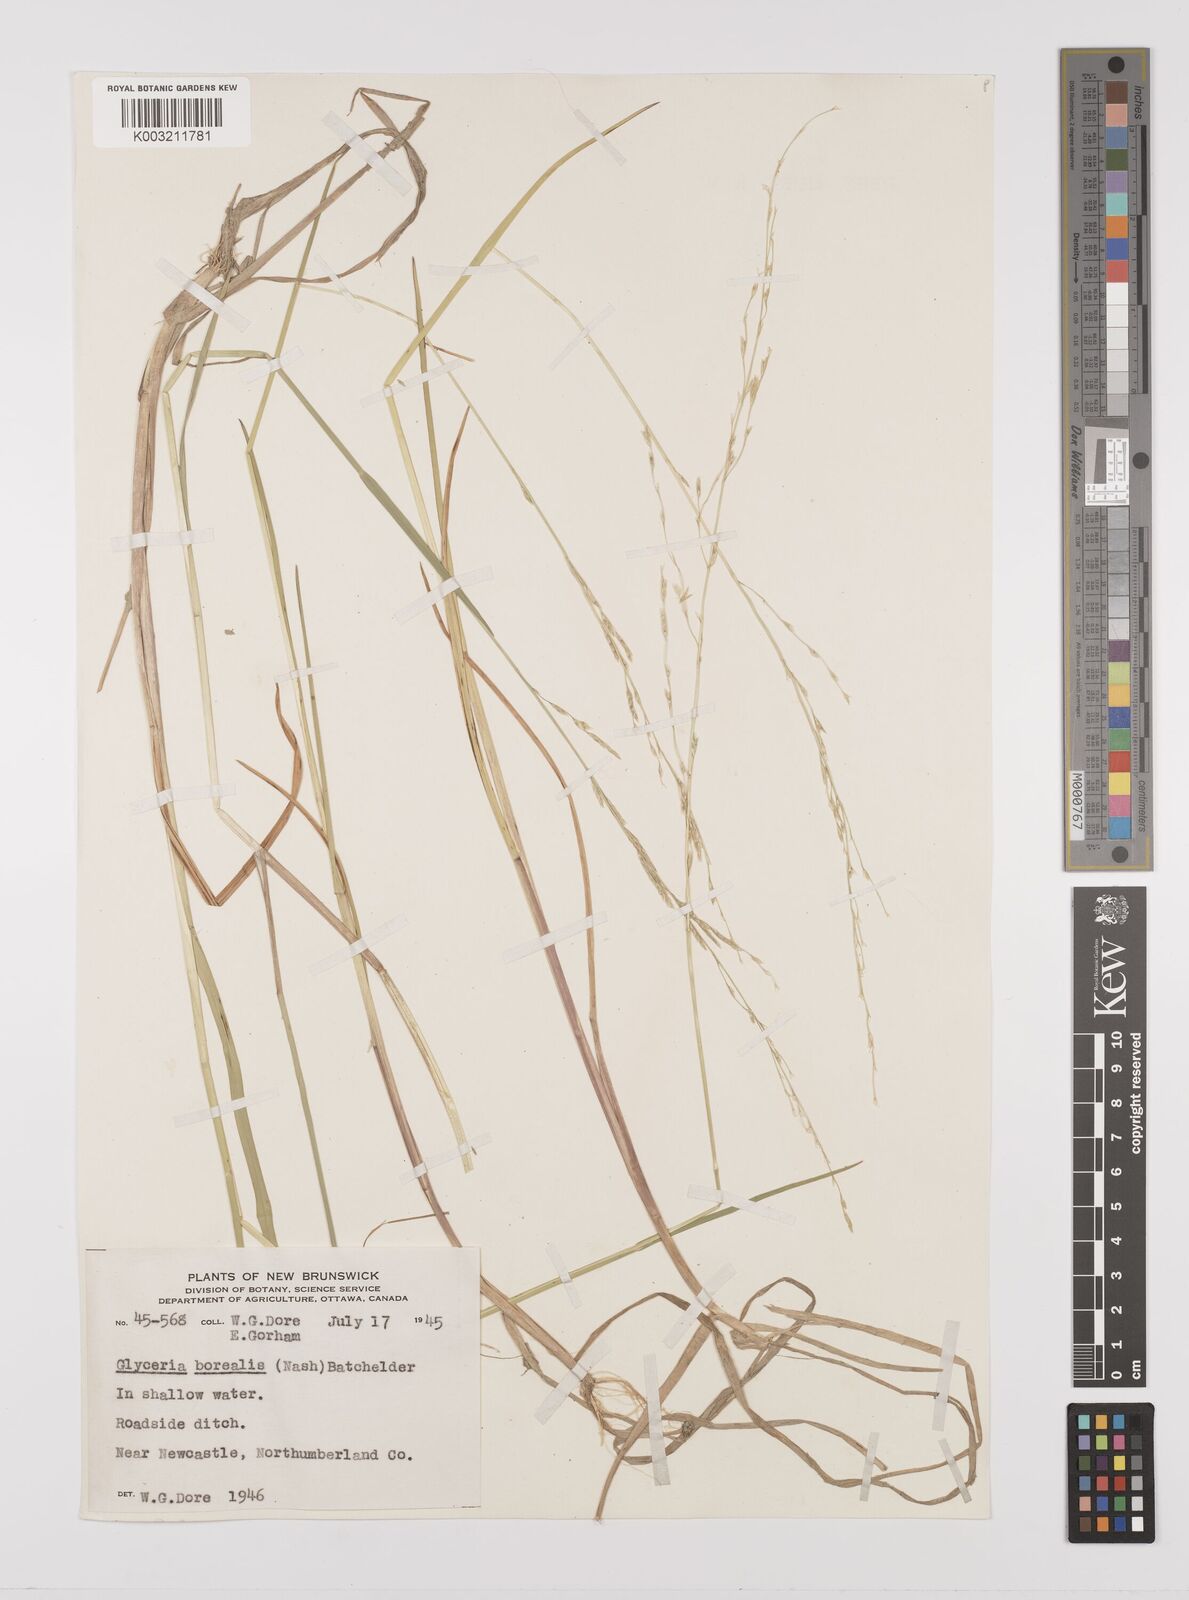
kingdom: Plantae
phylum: Tracheophyta
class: Liliopsida
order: Poales
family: Poaceae
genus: Glyceria
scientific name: Glyceria borealis
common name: Boreal glyceria
